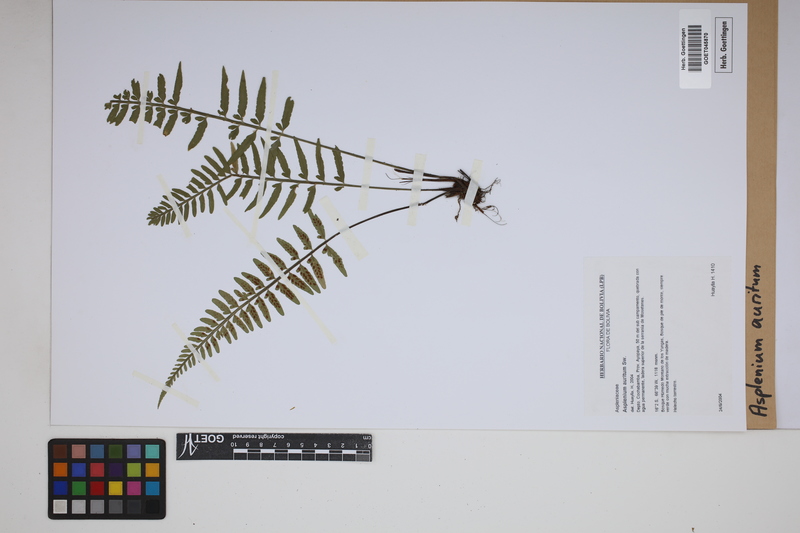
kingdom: Plantae
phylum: Tracheophyta
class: Polypodiopsida
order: Polypodiales
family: Aspleniaceae
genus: Asplenium
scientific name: Asplenium auritum
